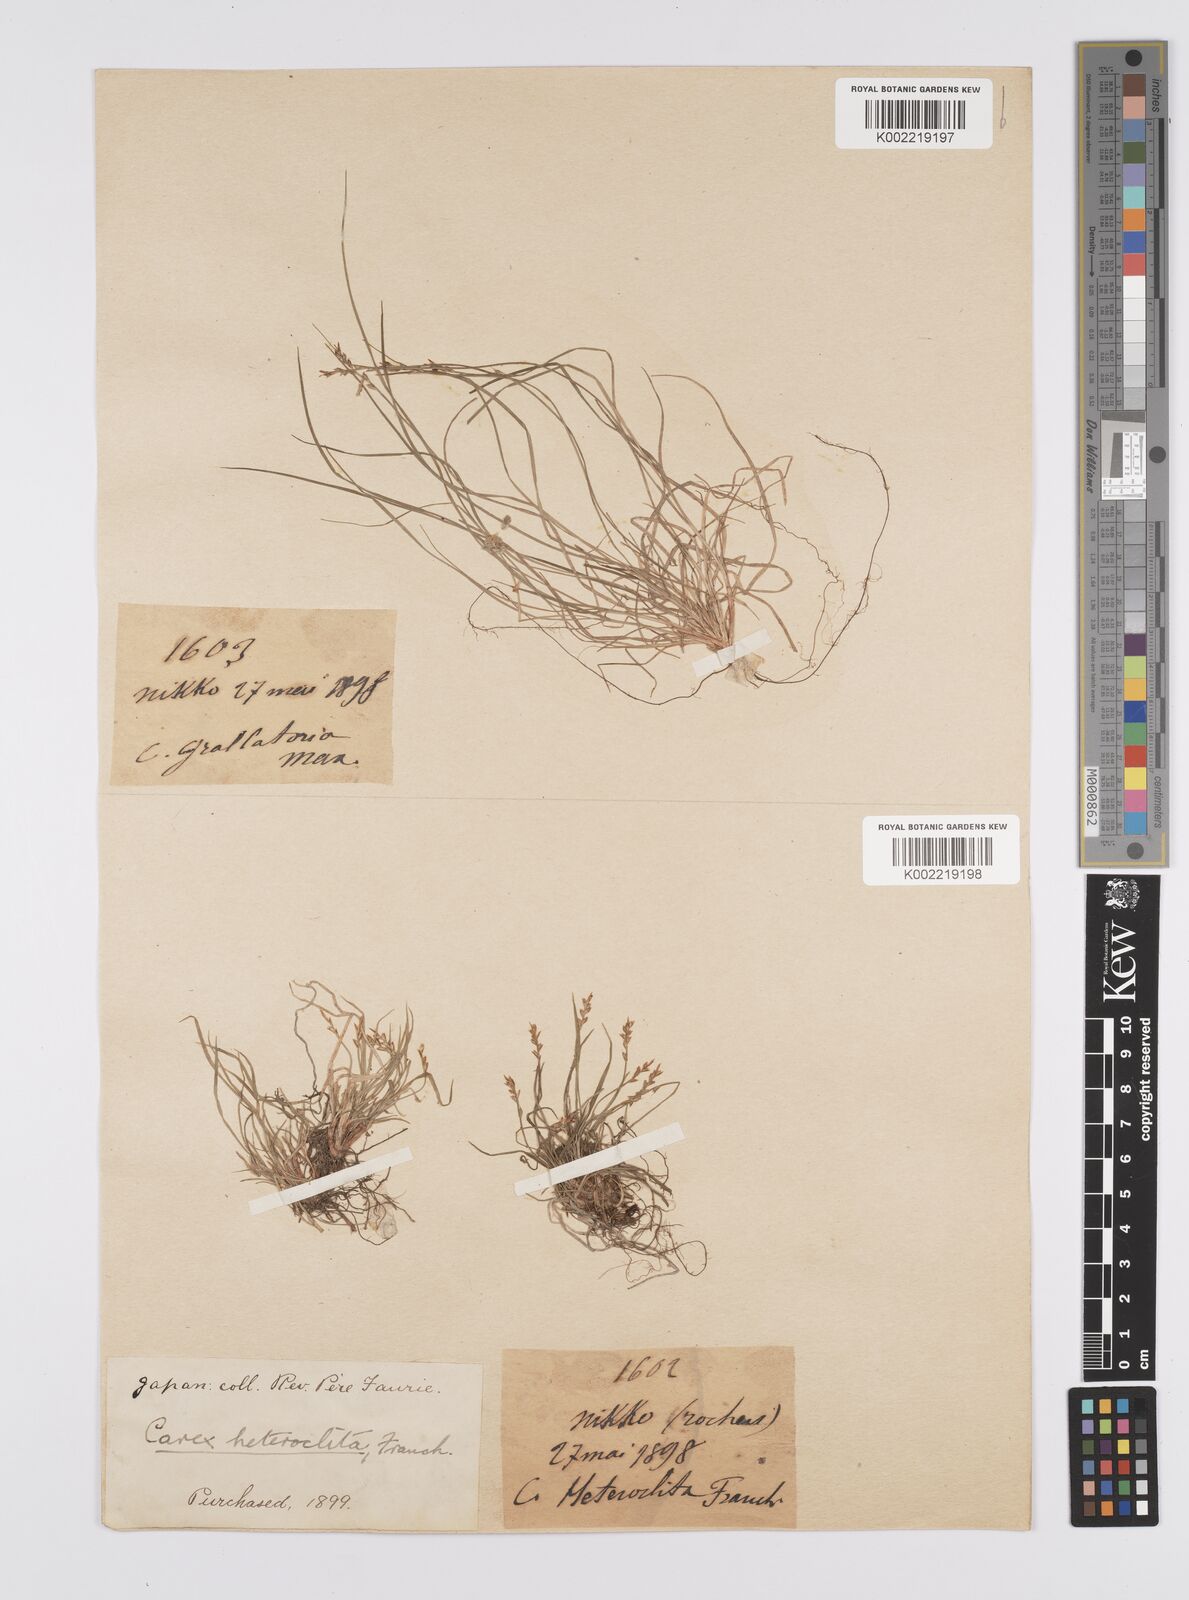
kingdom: Plantae
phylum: Tracheophyta
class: Liliopsida
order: Poales
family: Cyperaceae
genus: Carex
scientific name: Carex grallatoria
